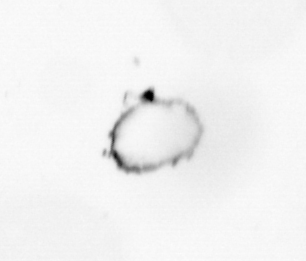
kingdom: Chromista
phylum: Ochrophyta
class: Bacillariophyceae
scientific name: Bacillariophyceae
